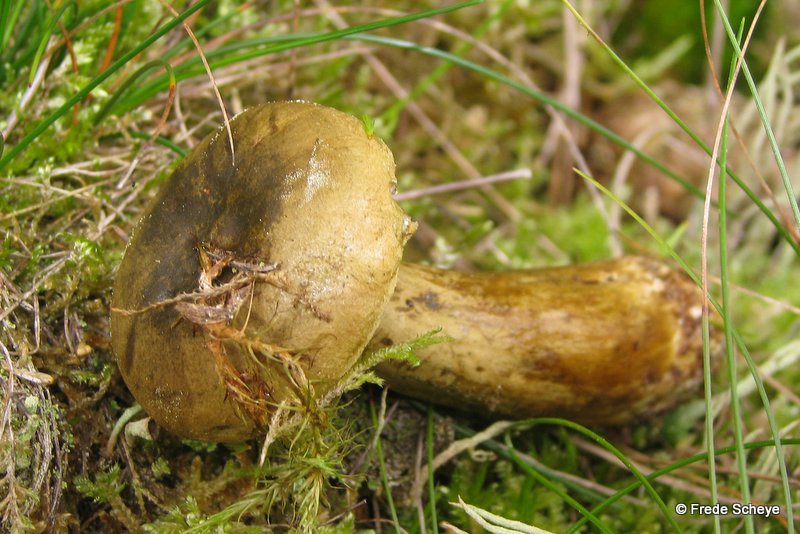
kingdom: Fungi
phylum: Basidiomycota
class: Agaricomycetes
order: Russulales
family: Russulaceae
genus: Lactarius
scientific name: Lactarius necator
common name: manddraber-mælkehat
